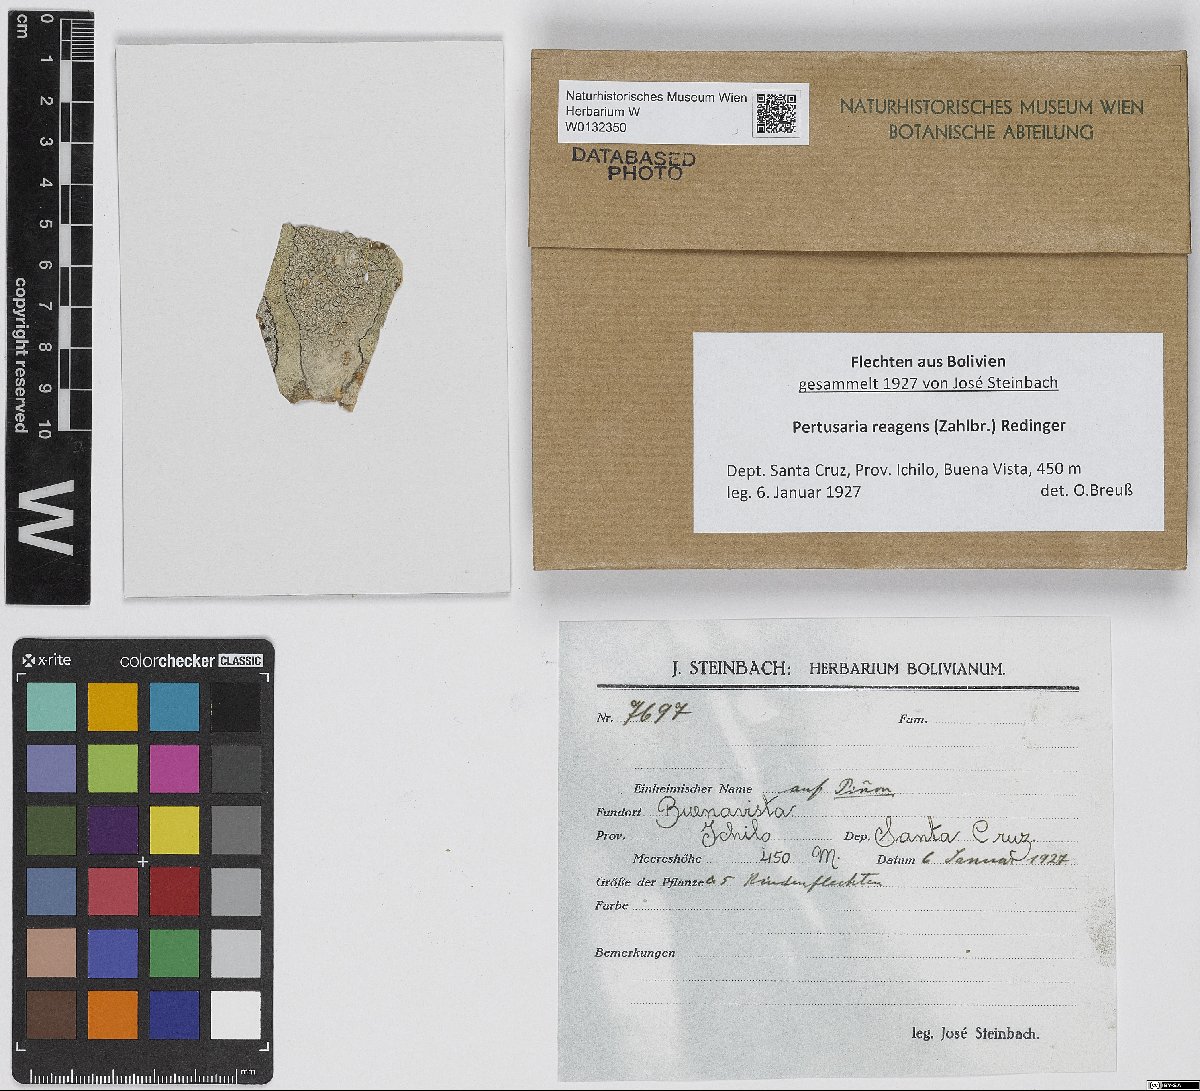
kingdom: Fungi
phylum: Ascomycota
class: Lecanoromycetes
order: Pertusariales
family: Pertusariaceae
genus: Pertusaria
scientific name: Pertusaria
